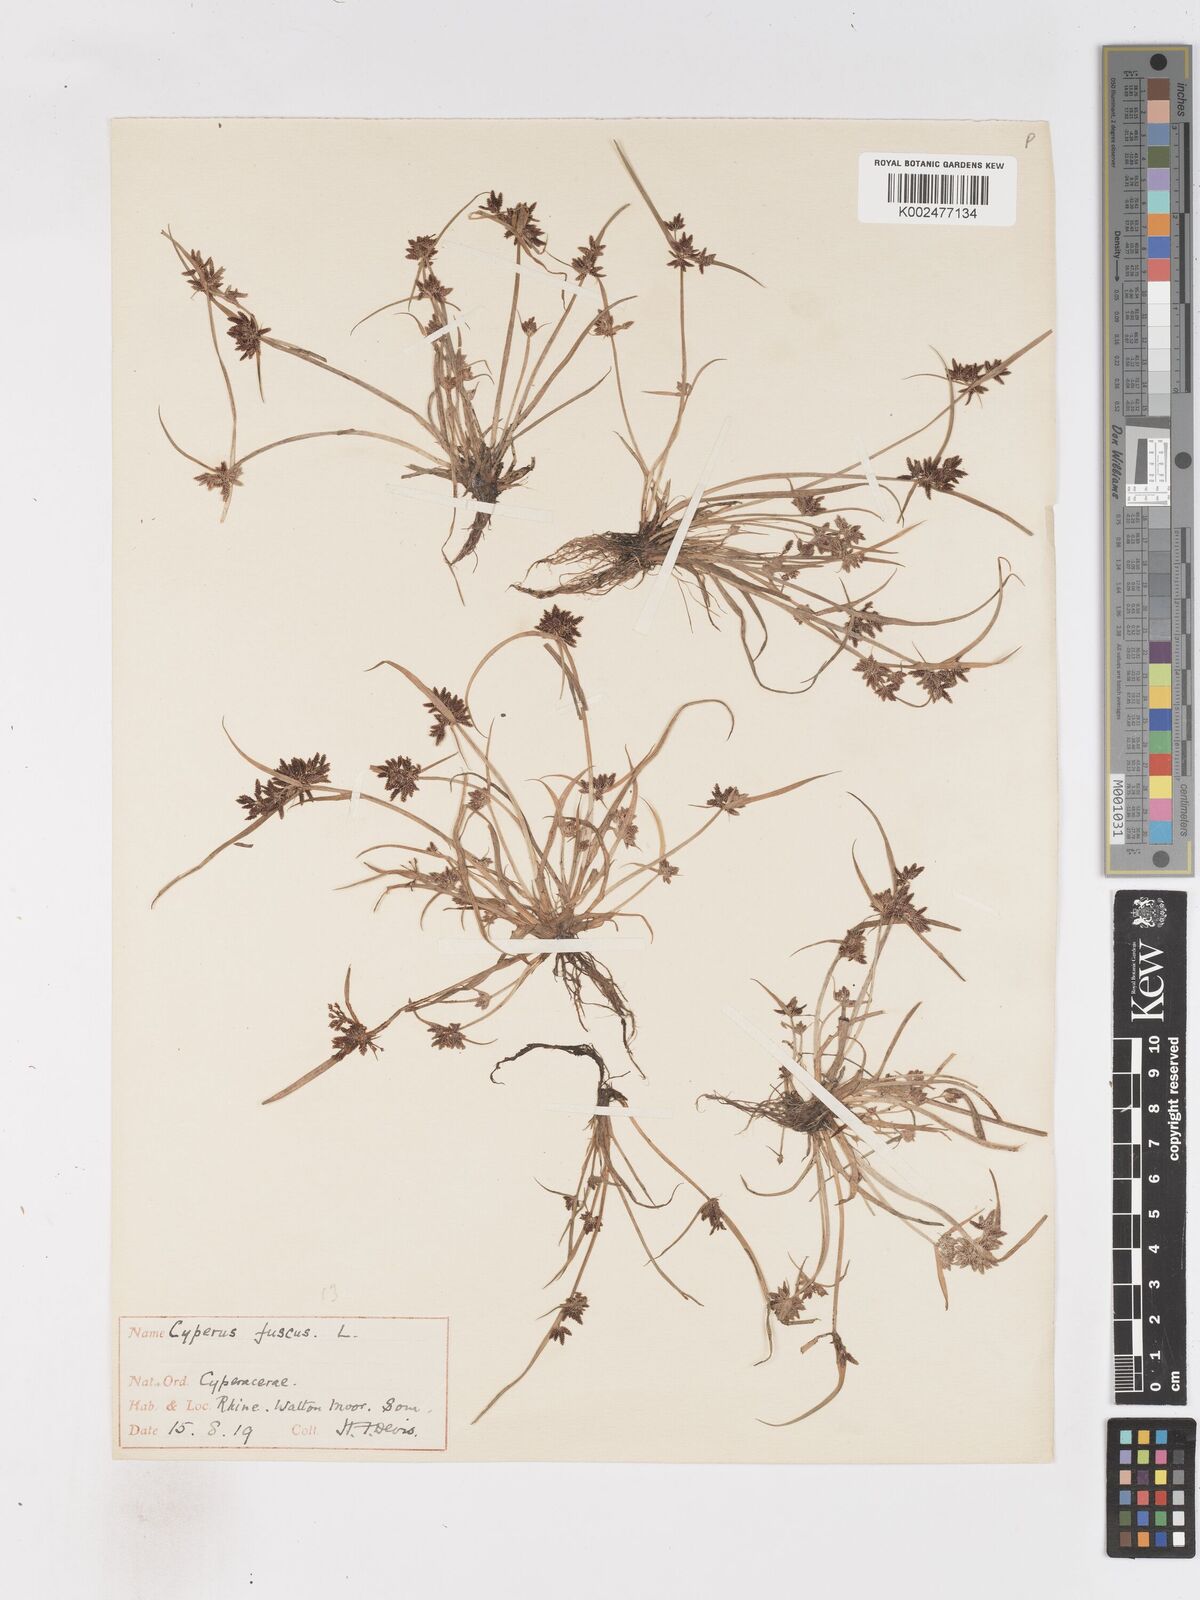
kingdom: Plantae
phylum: Tracheophyta
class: Liliopsida
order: Poales
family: Cyperaceae
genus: Cyperus
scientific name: Cyperus fuscus
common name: Brown galingale
